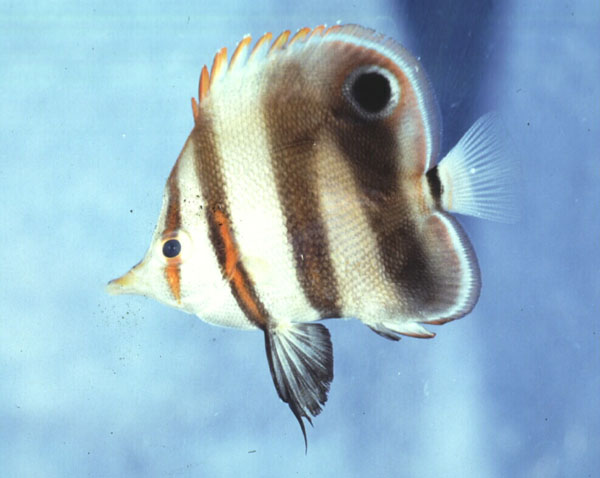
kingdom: Animalia
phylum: Chordata
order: Perciformes
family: Chaetodontidae
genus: Chelmon
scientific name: Chelmon muelleri
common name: Blackfin coralfish
